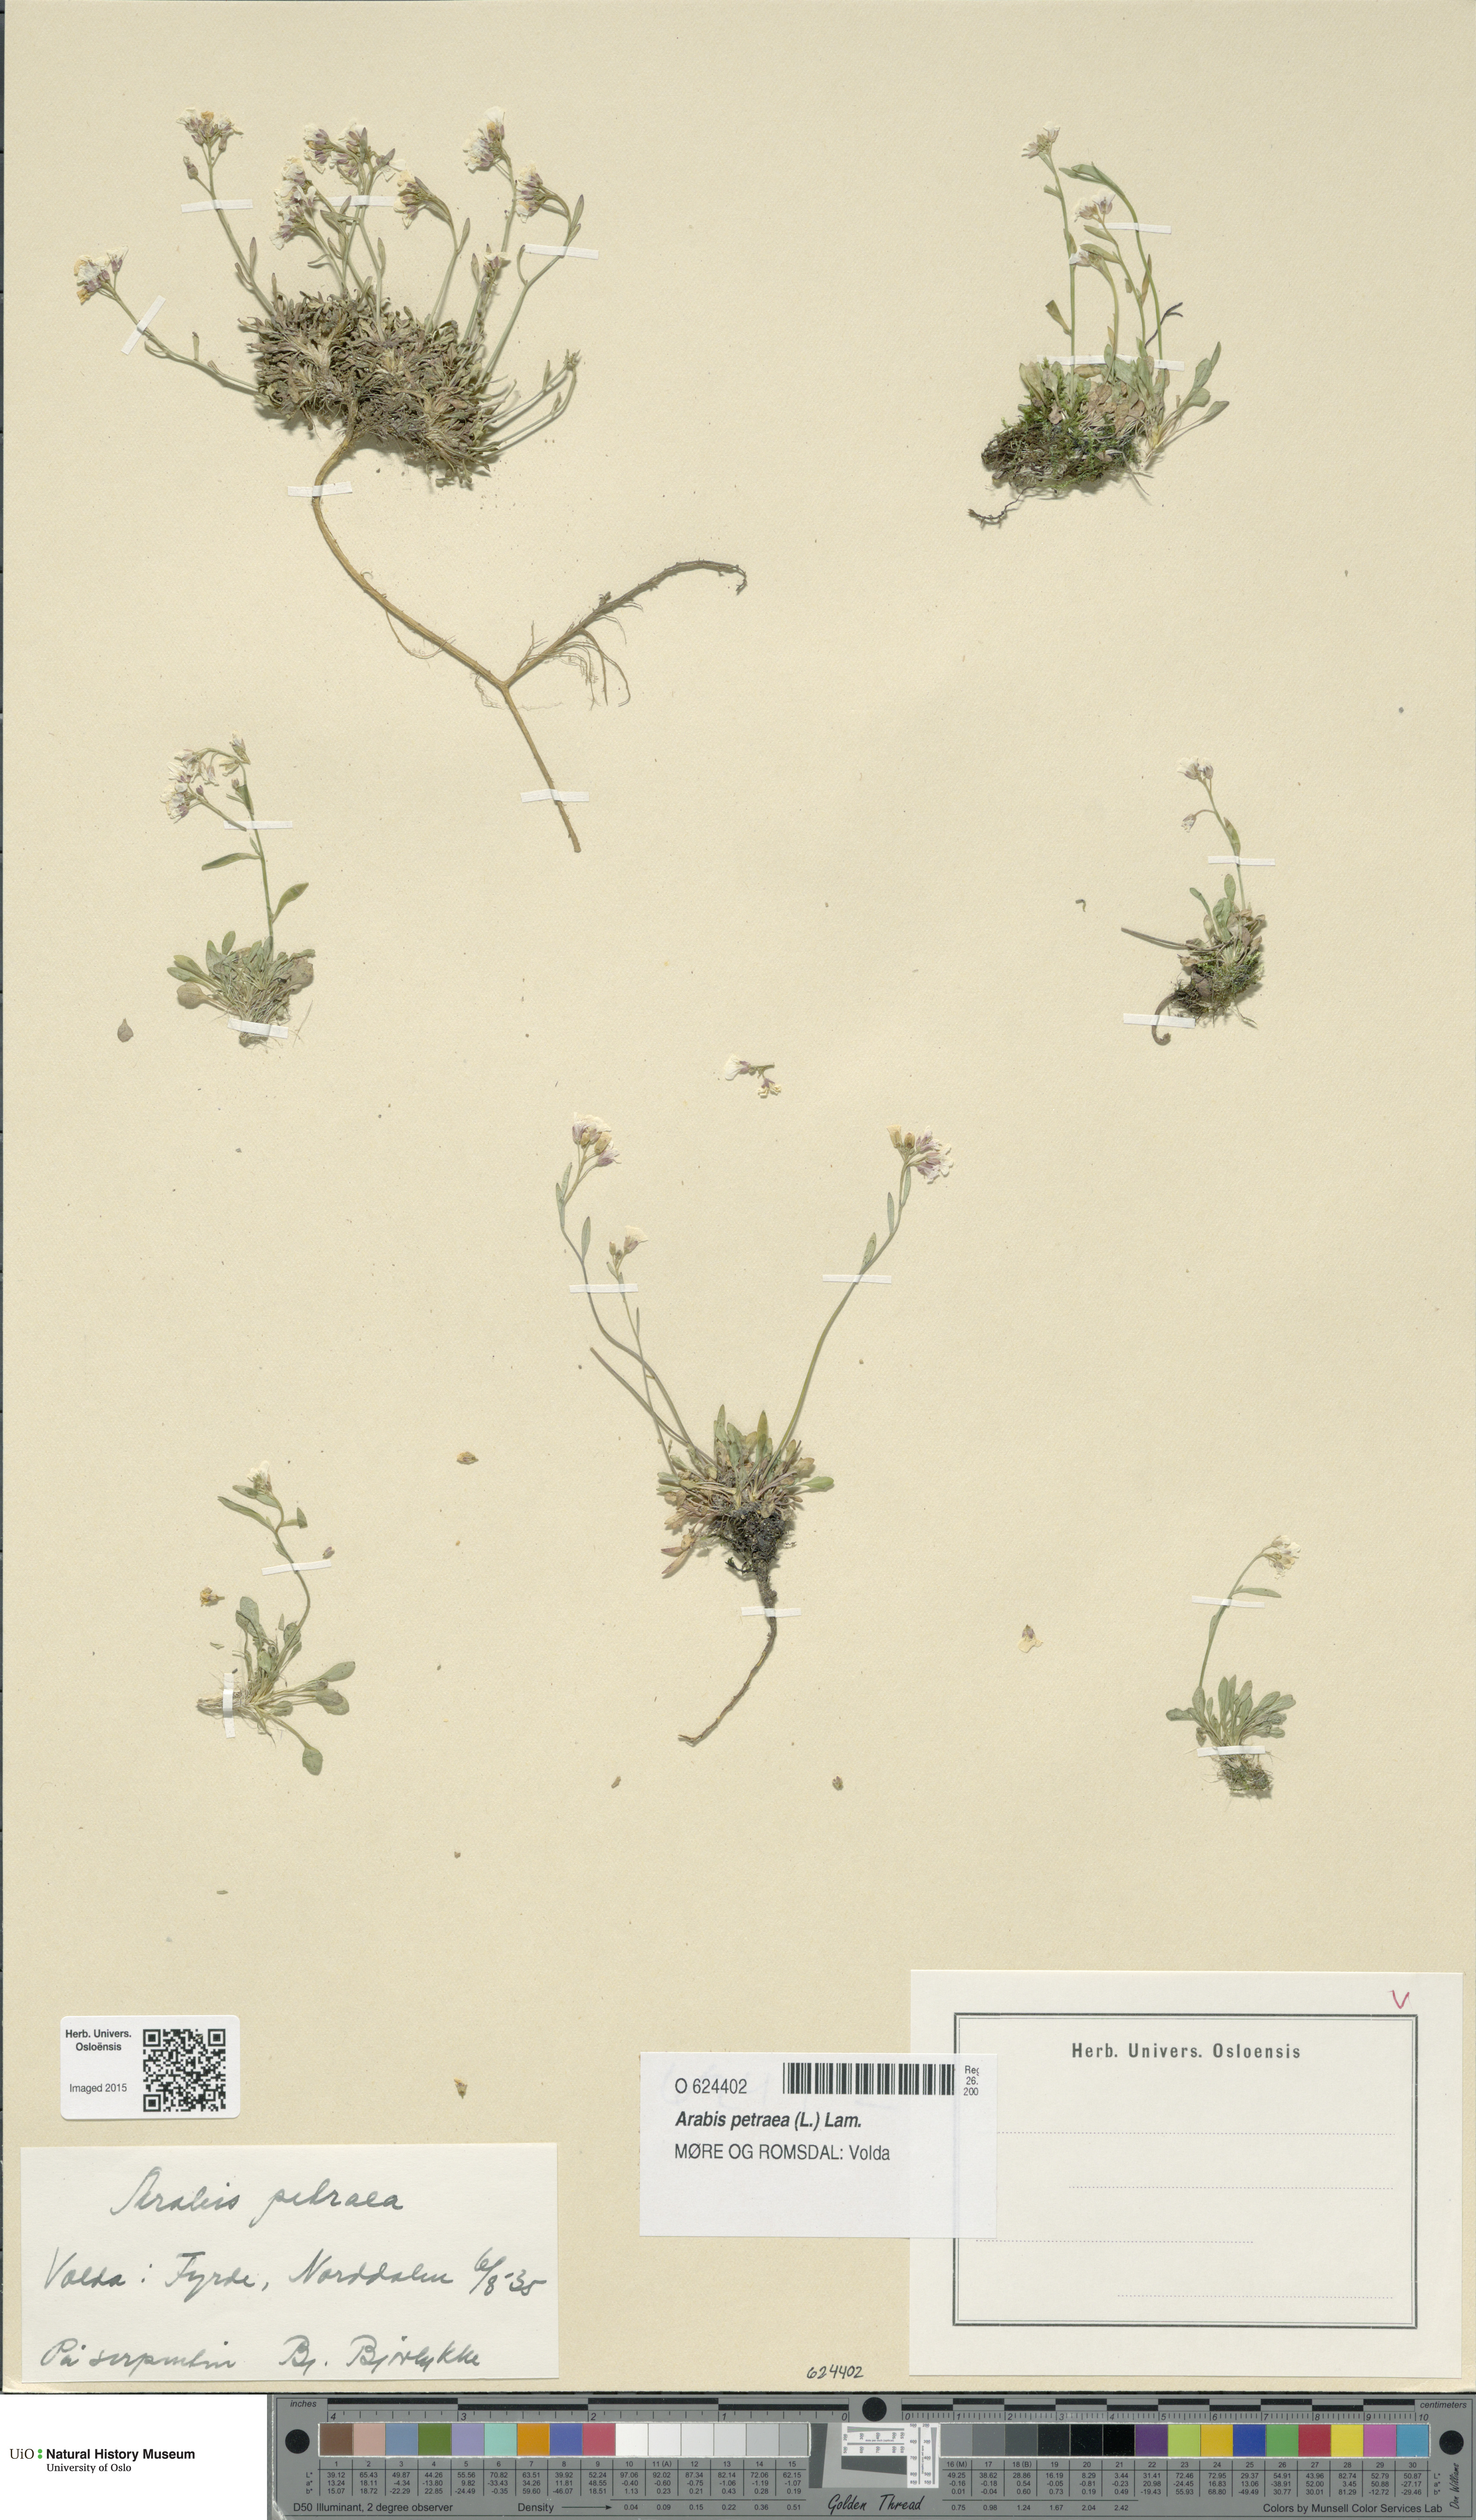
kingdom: Plantae
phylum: Tracheophyta
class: Magnoliopsida
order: Brassicales
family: Brassicaceae
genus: Arabidopsis
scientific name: Arabidopsis petraea
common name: Northern rock-cress
